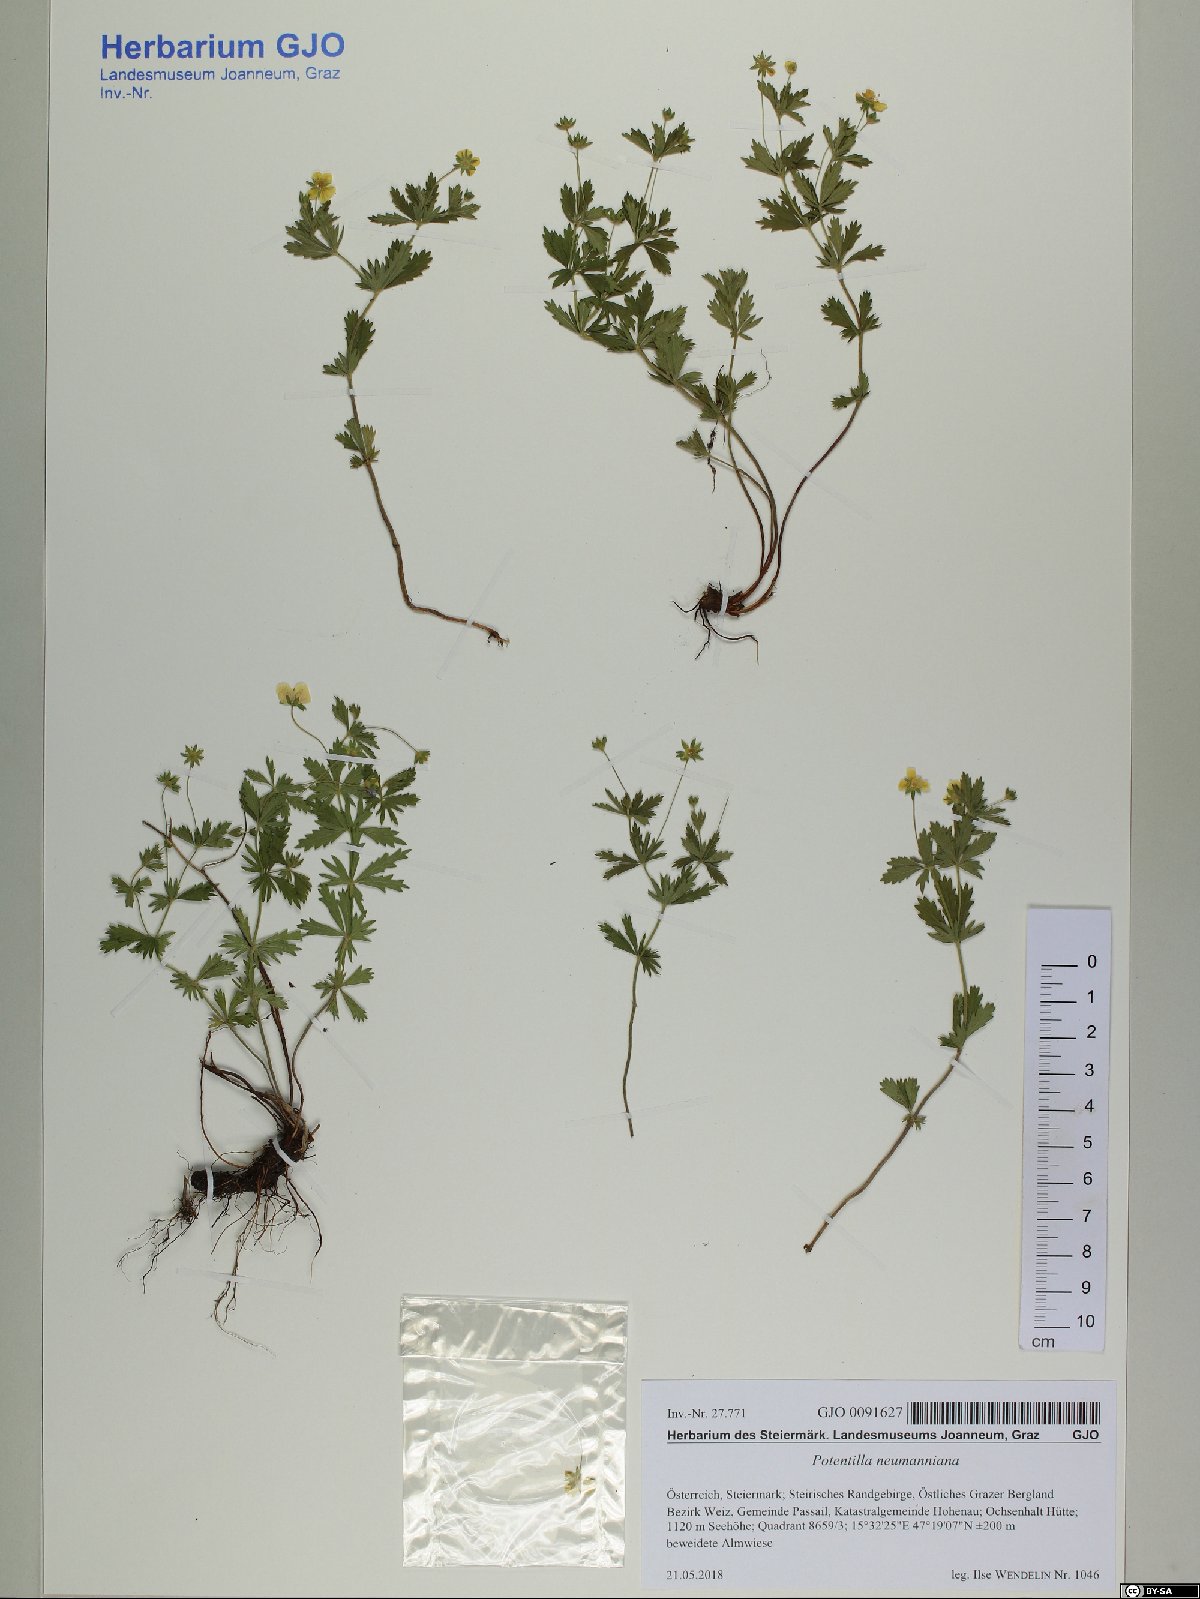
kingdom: Plantae
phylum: Tracheophyta
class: Magnoliopsida
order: Rosales
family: Rosaceae
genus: Potentilla
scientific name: Potentilla verna
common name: Spring cinquefoil
